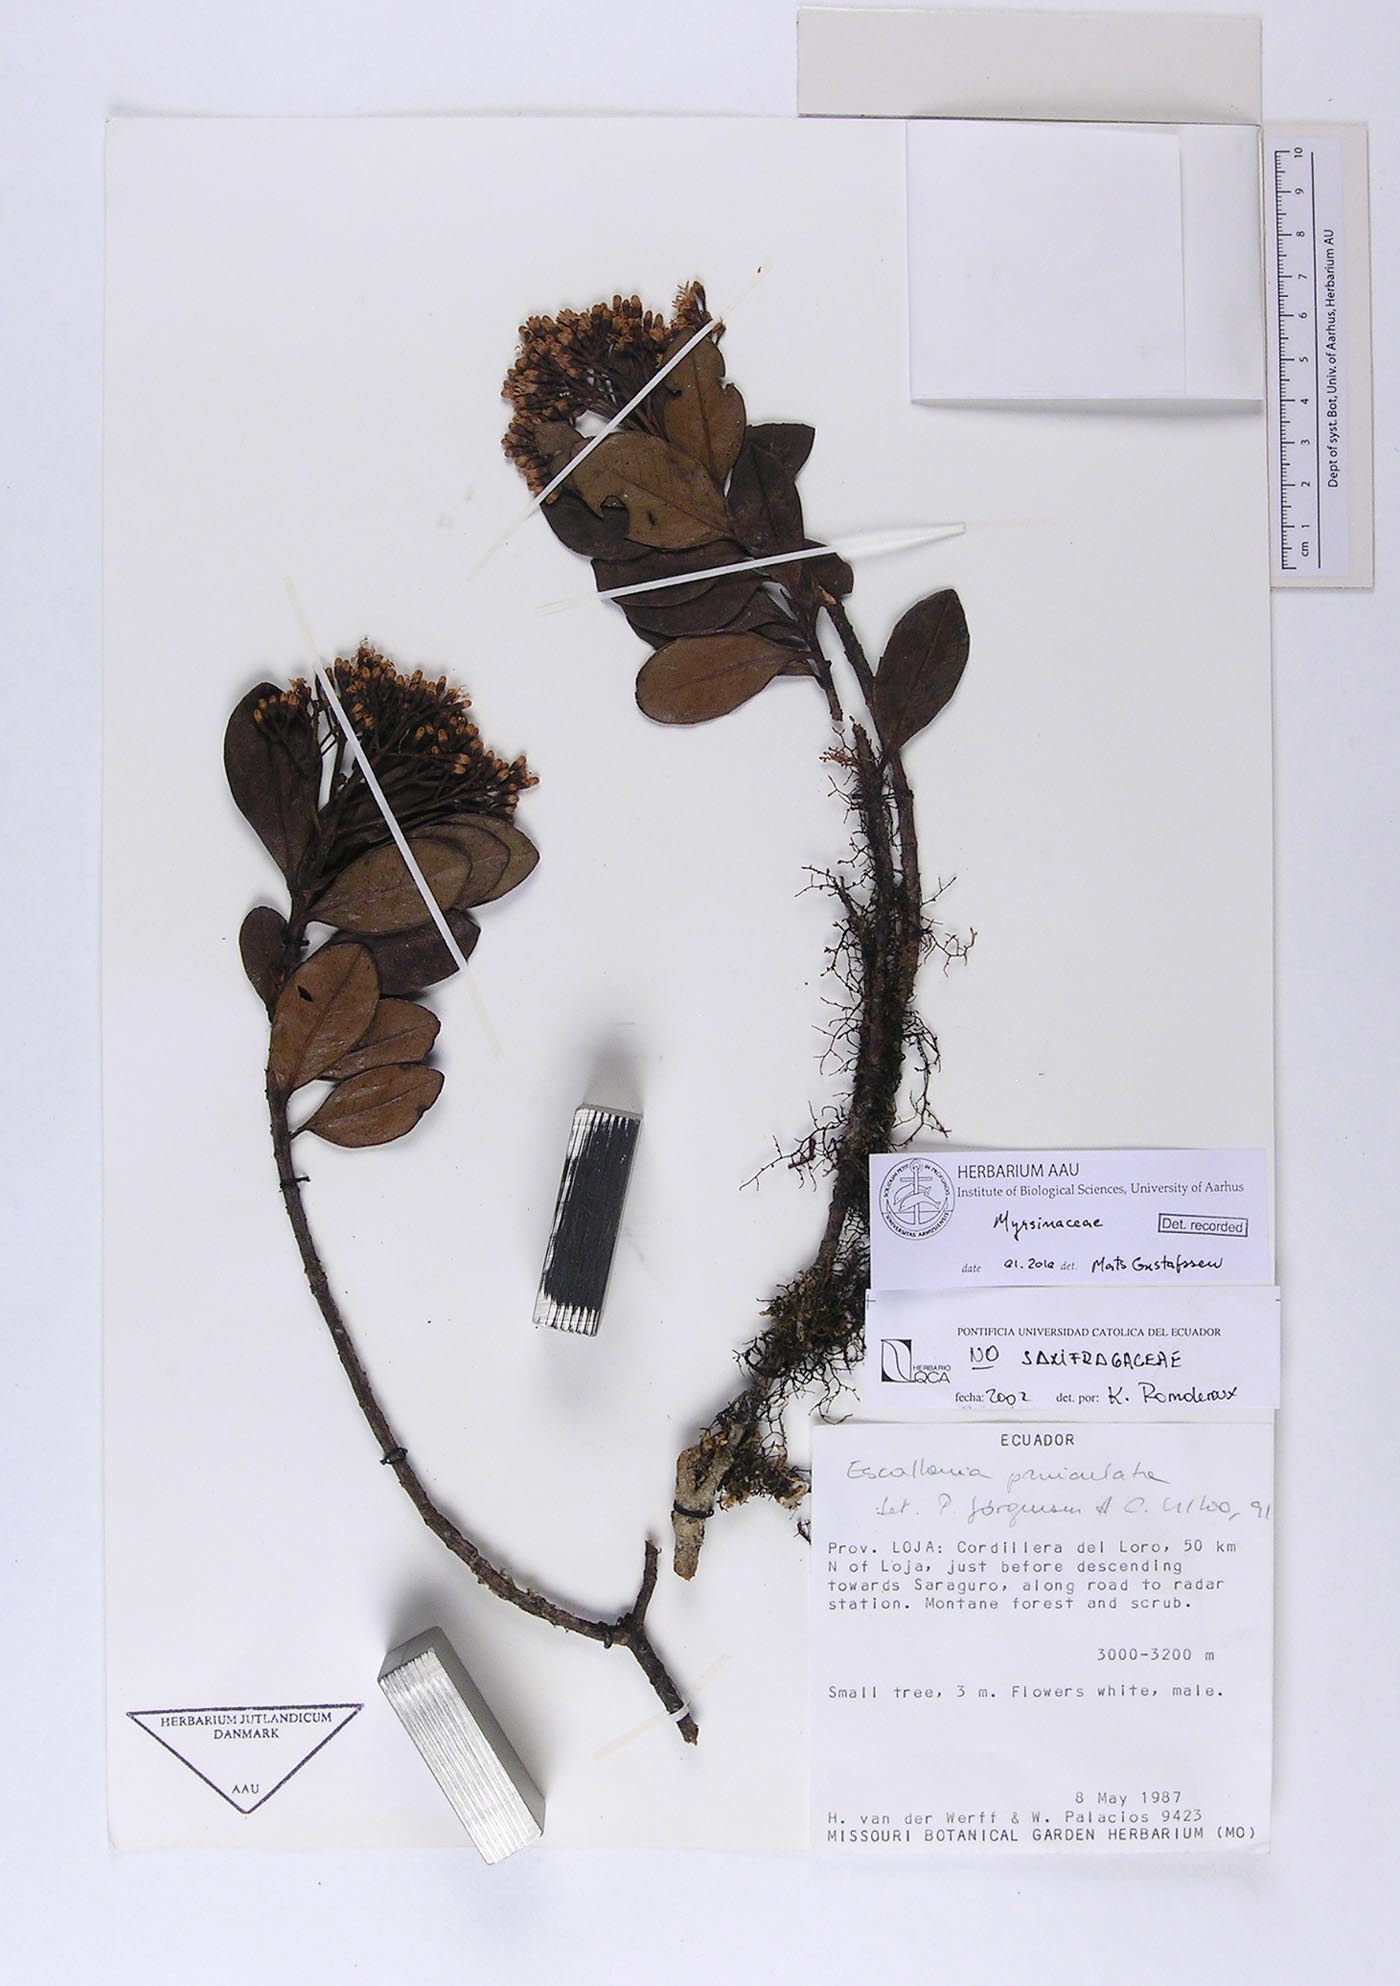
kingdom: Plantae
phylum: Tracheophyta
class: Magnoliopsida
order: Ericales
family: Primulaceae
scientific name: Primulaceae
